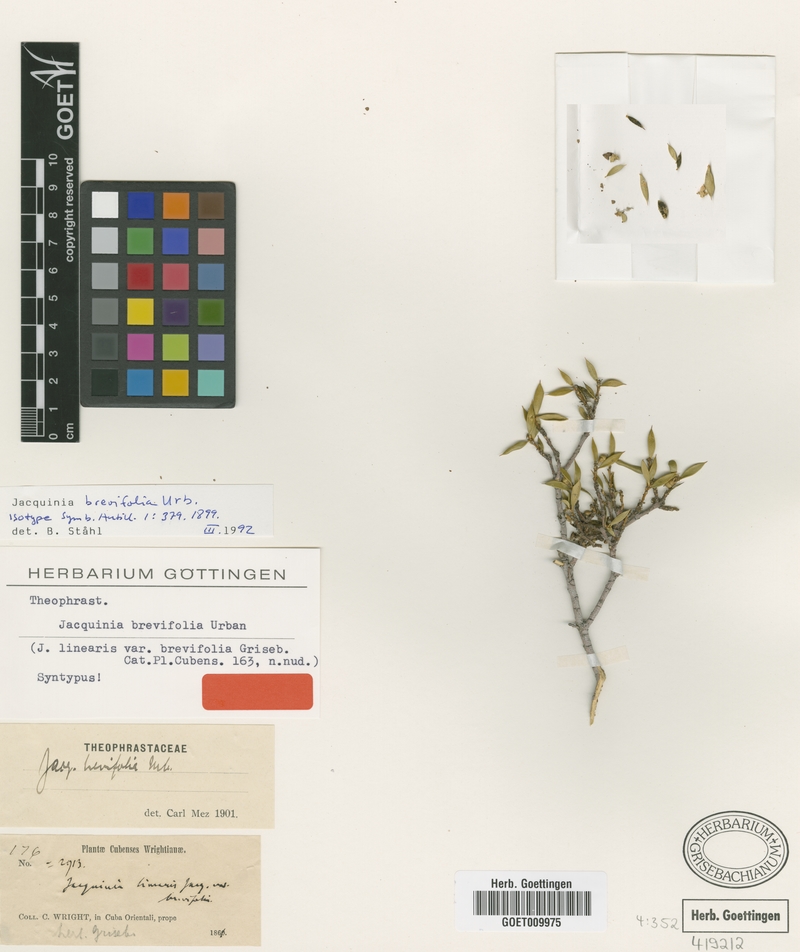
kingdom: Plantae
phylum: Tracheophyta
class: Magnoliopsida
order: Ericales
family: Primulaceae
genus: Bonellia
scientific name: Bonellia bissei
